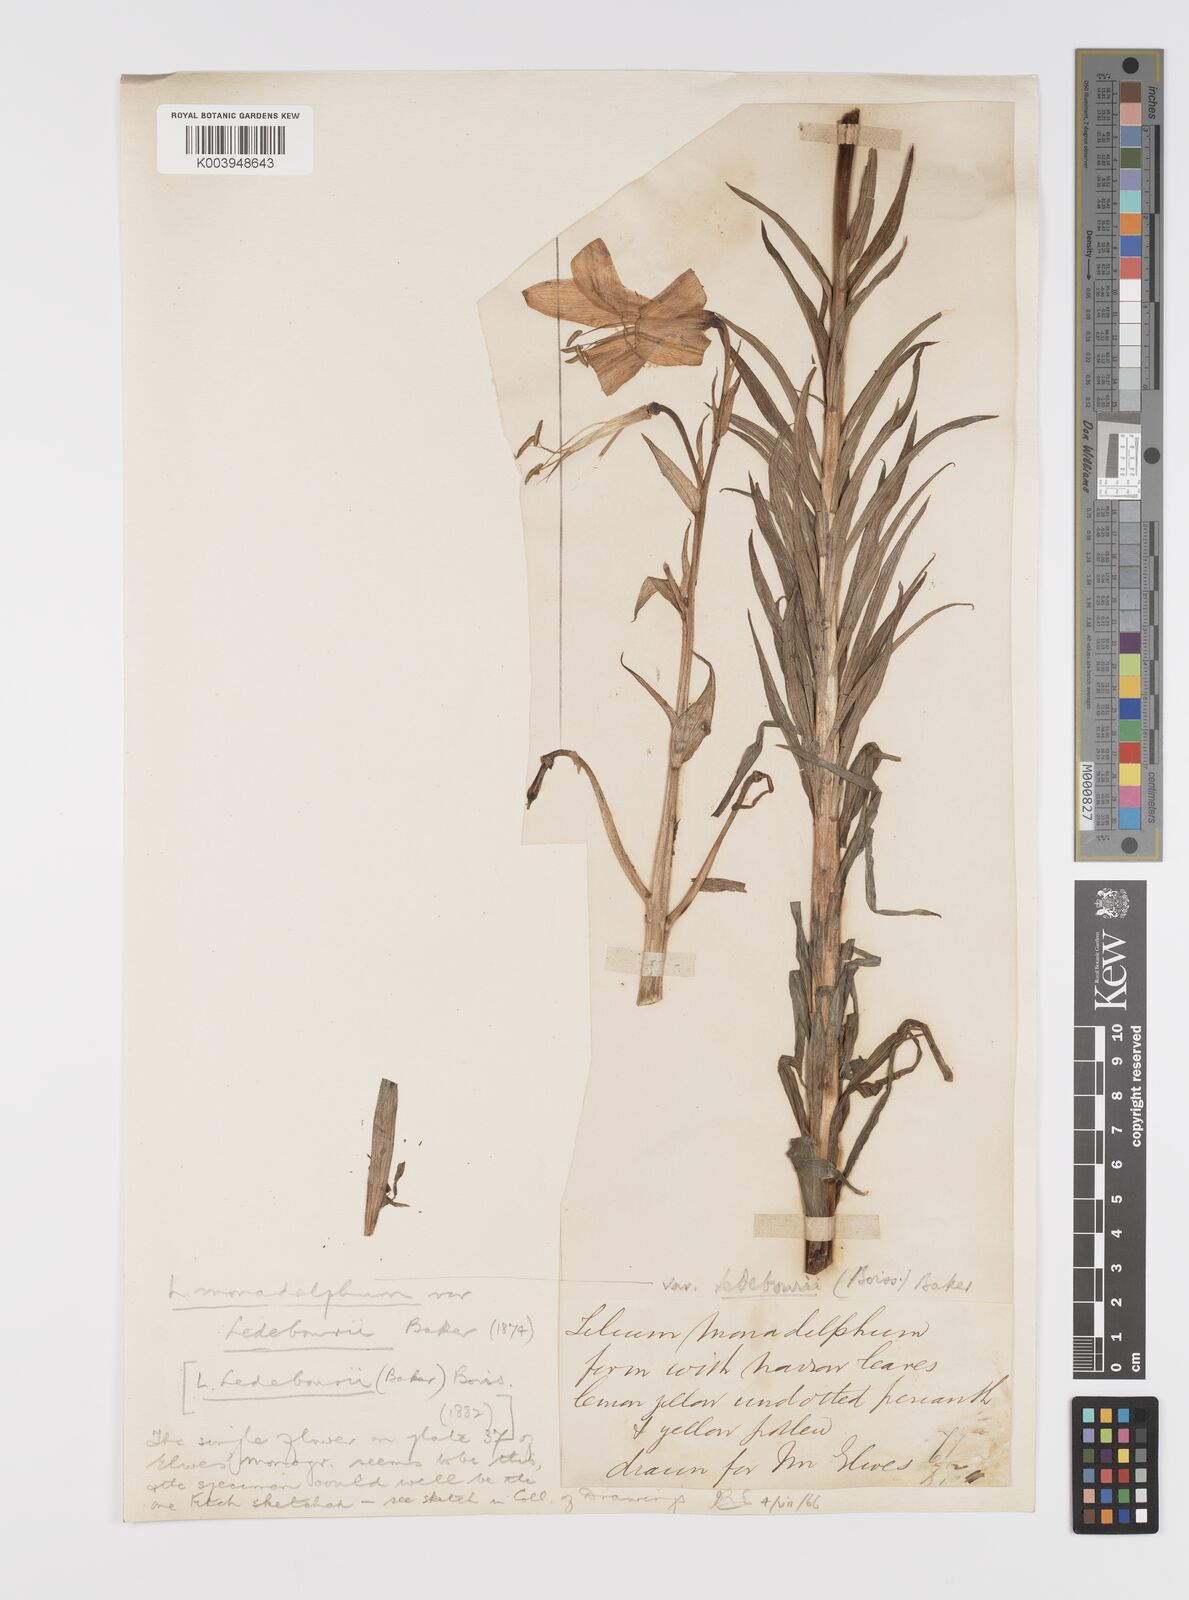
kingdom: Plantae
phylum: Tracheophyta
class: Liliopsida
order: Liliales
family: Liliaceae
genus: Lilium
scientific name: Lilium ledebourii
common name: Ledebour's lily
